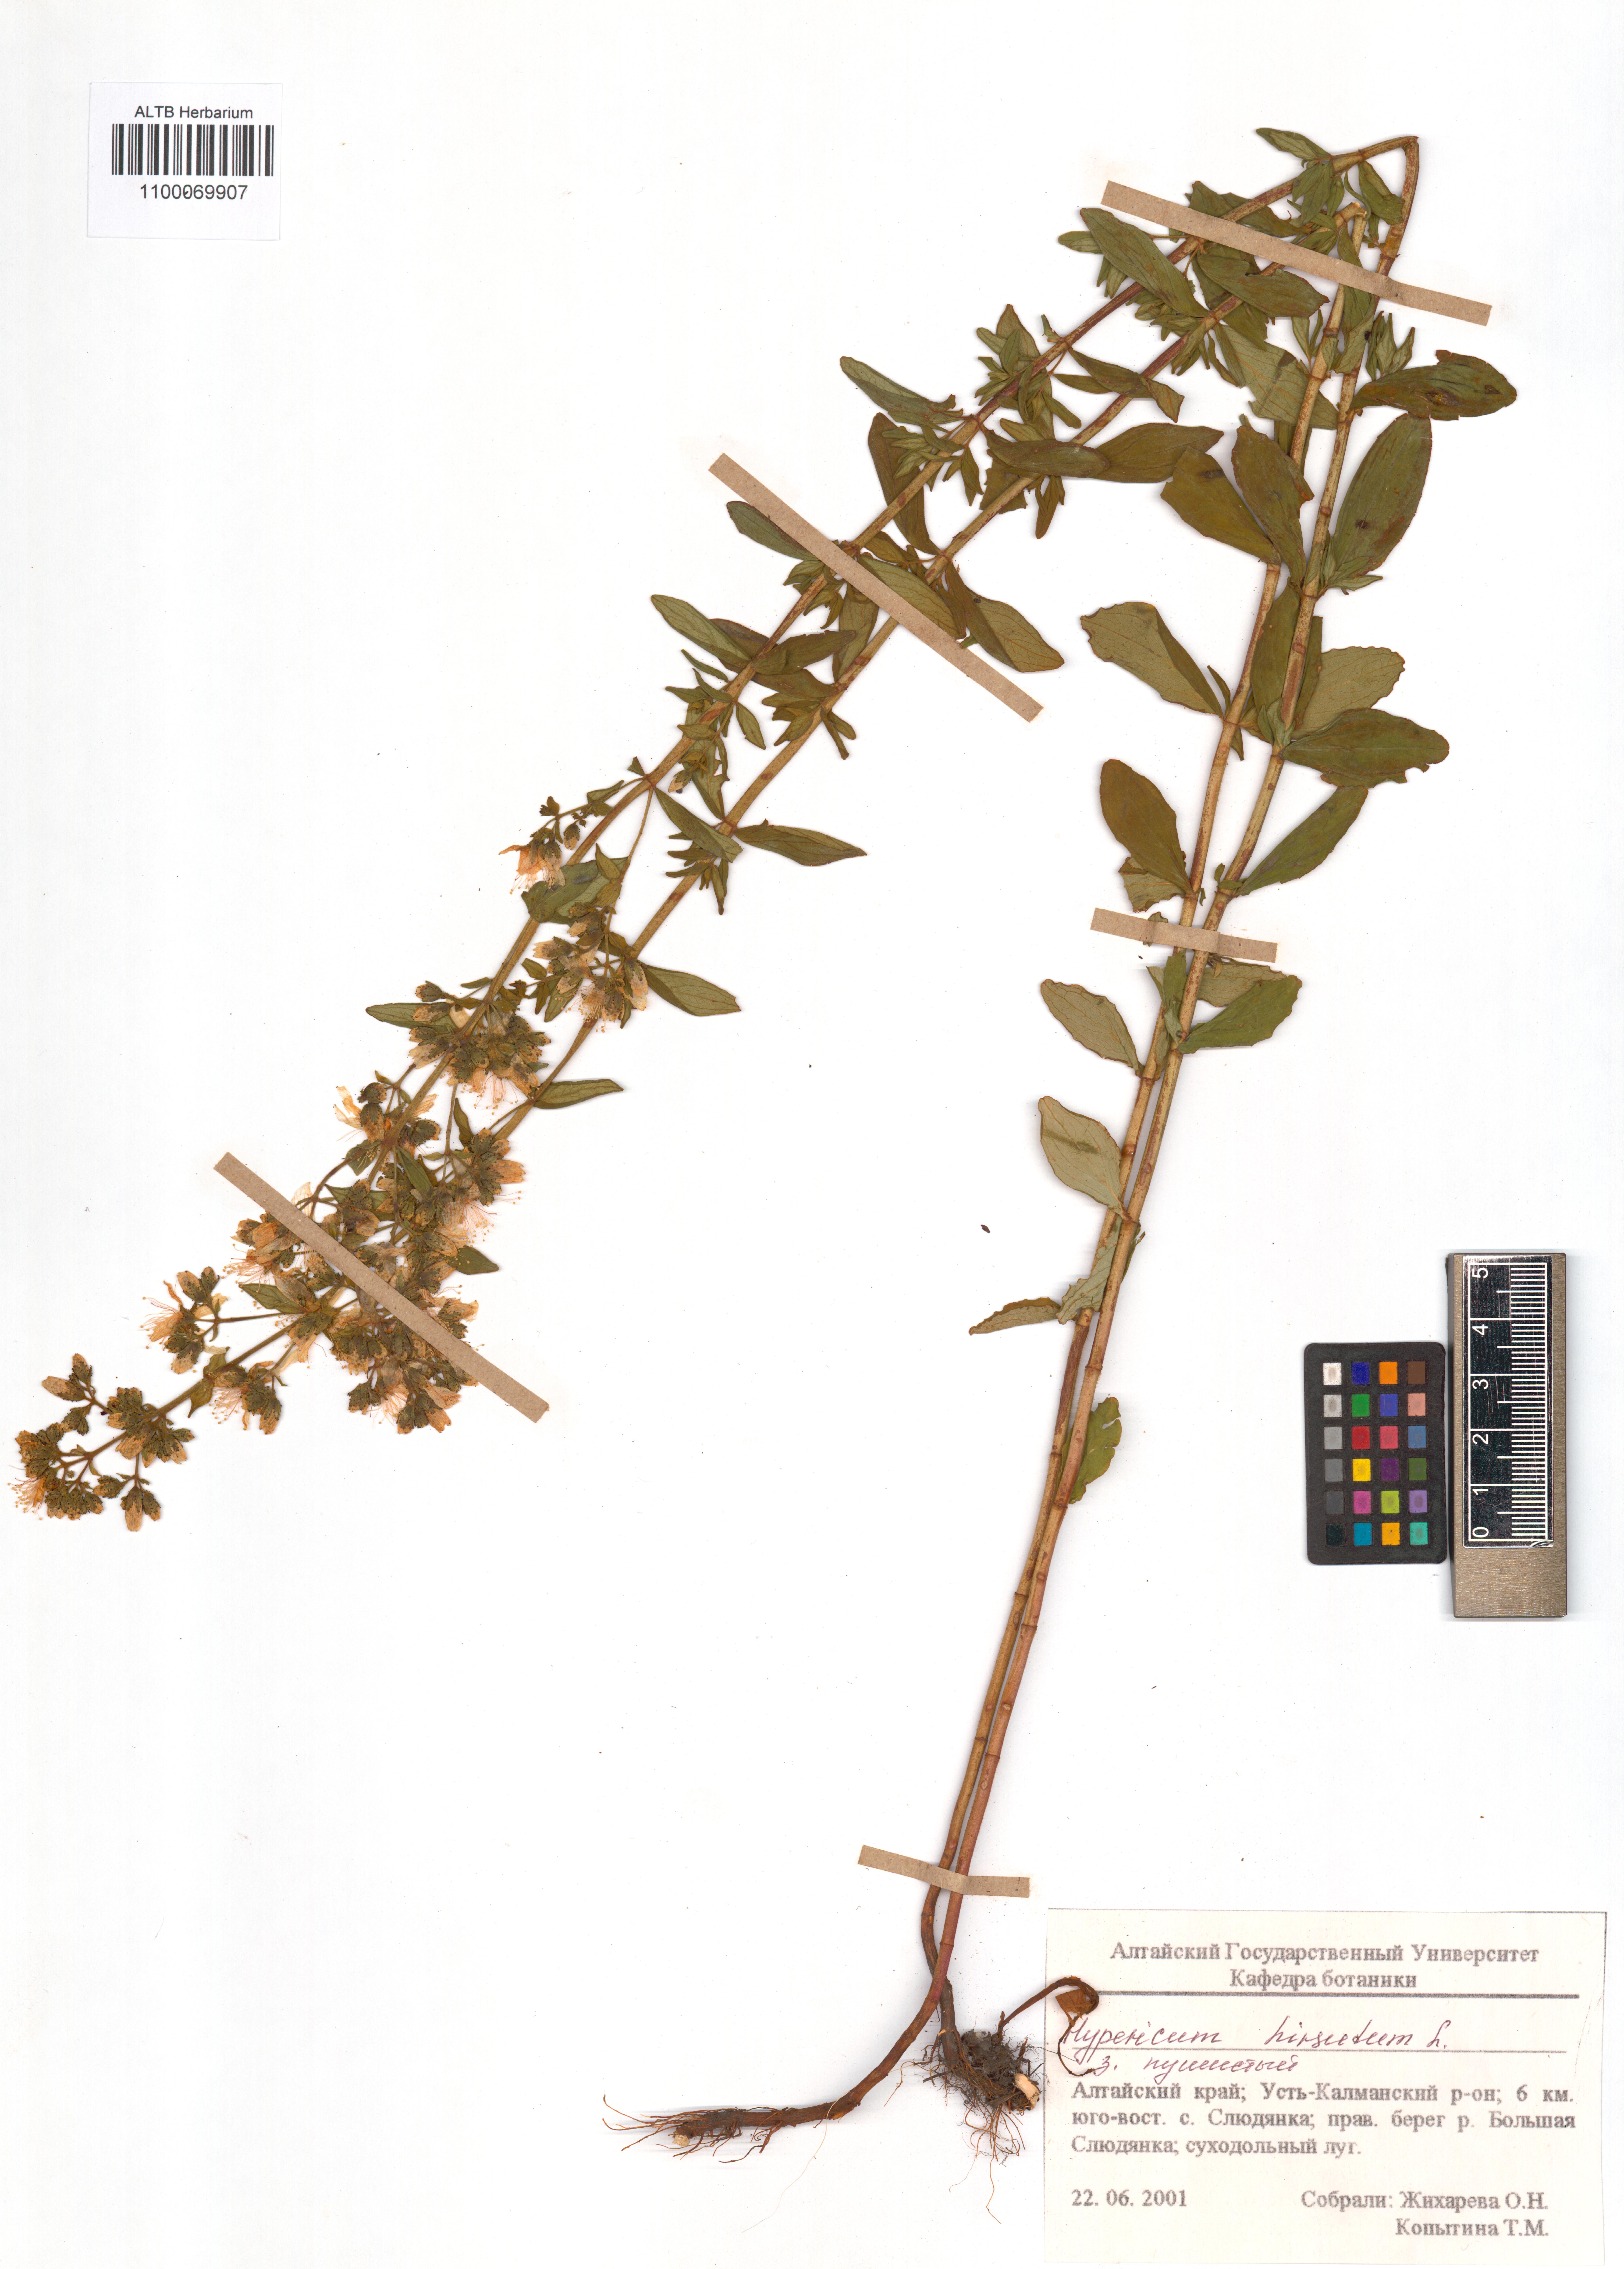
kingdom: Plantae
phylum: Tracheophyta
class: Magnoliopsida
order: Malpighiales
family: Hypericaceae
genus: Hypericum
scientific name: Hypericum hirsutum
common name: Hairy st. john's-wort
